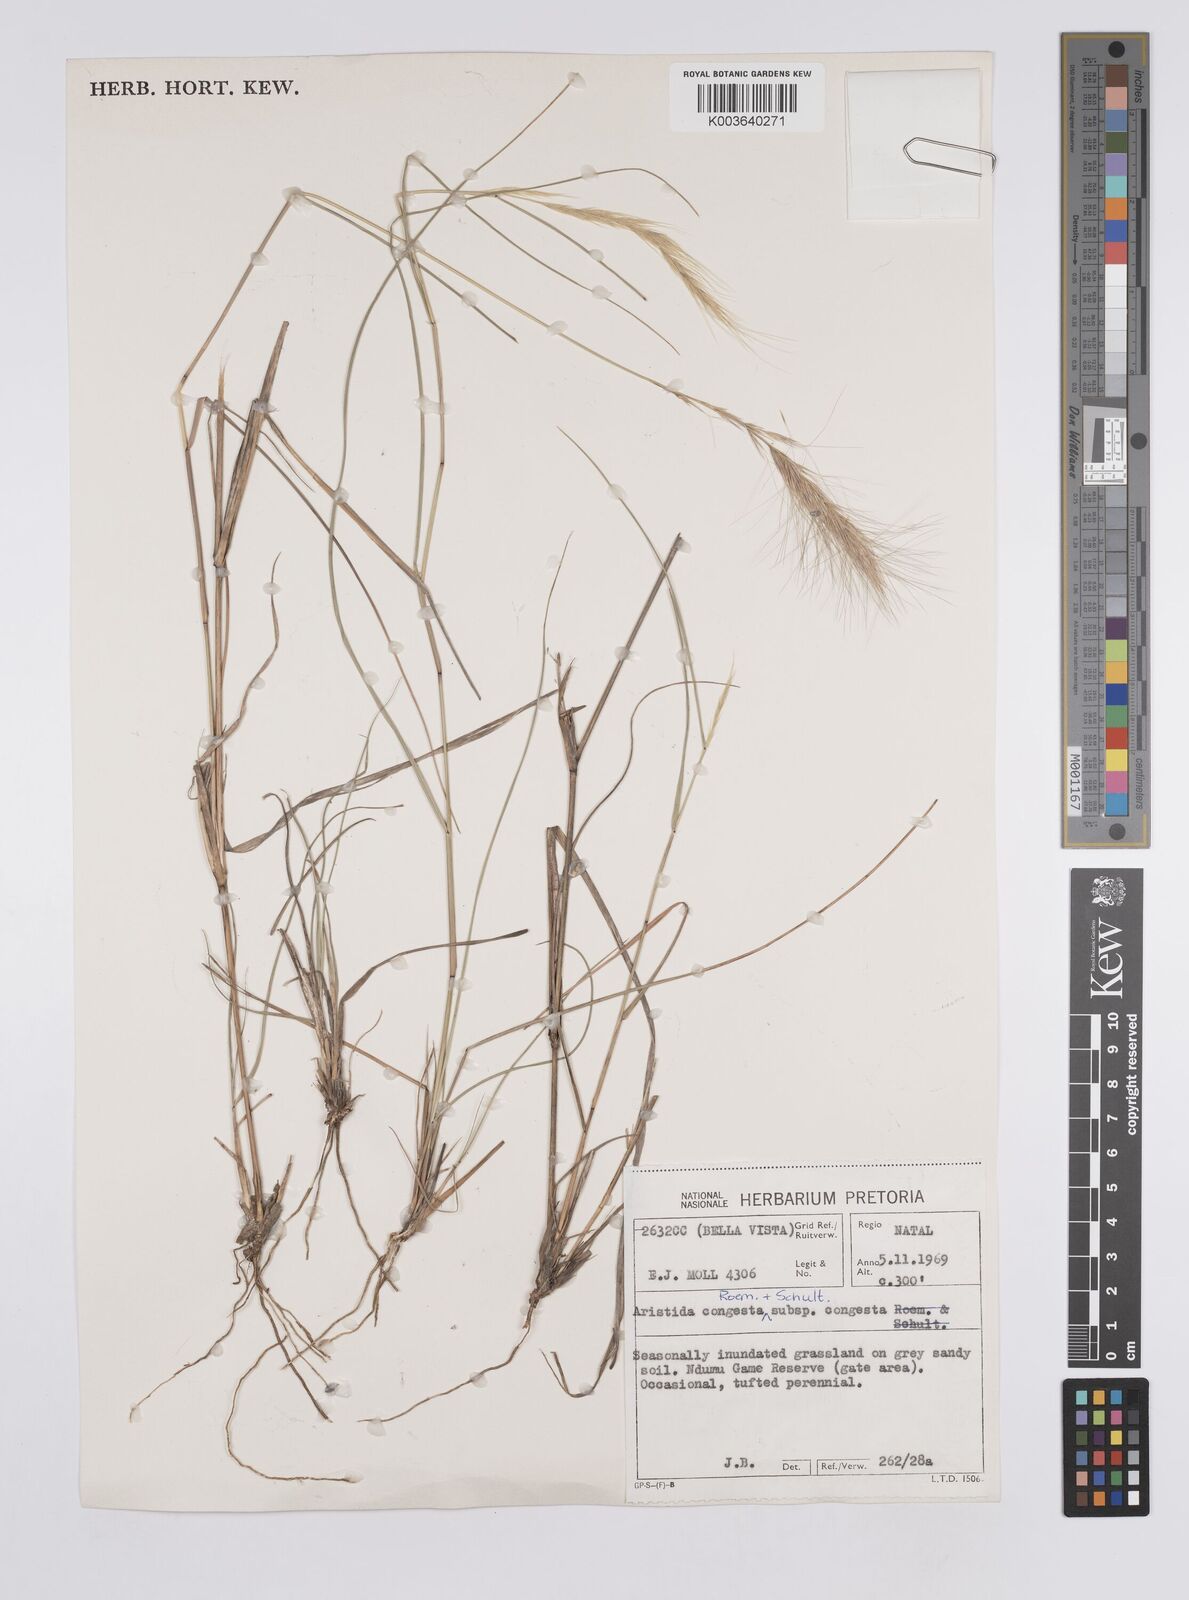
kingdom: Plantae
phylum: Tracheophyta
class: Liliopsida
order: Poales
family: Poaceae
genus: Aristida
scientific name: Aristida congesta
